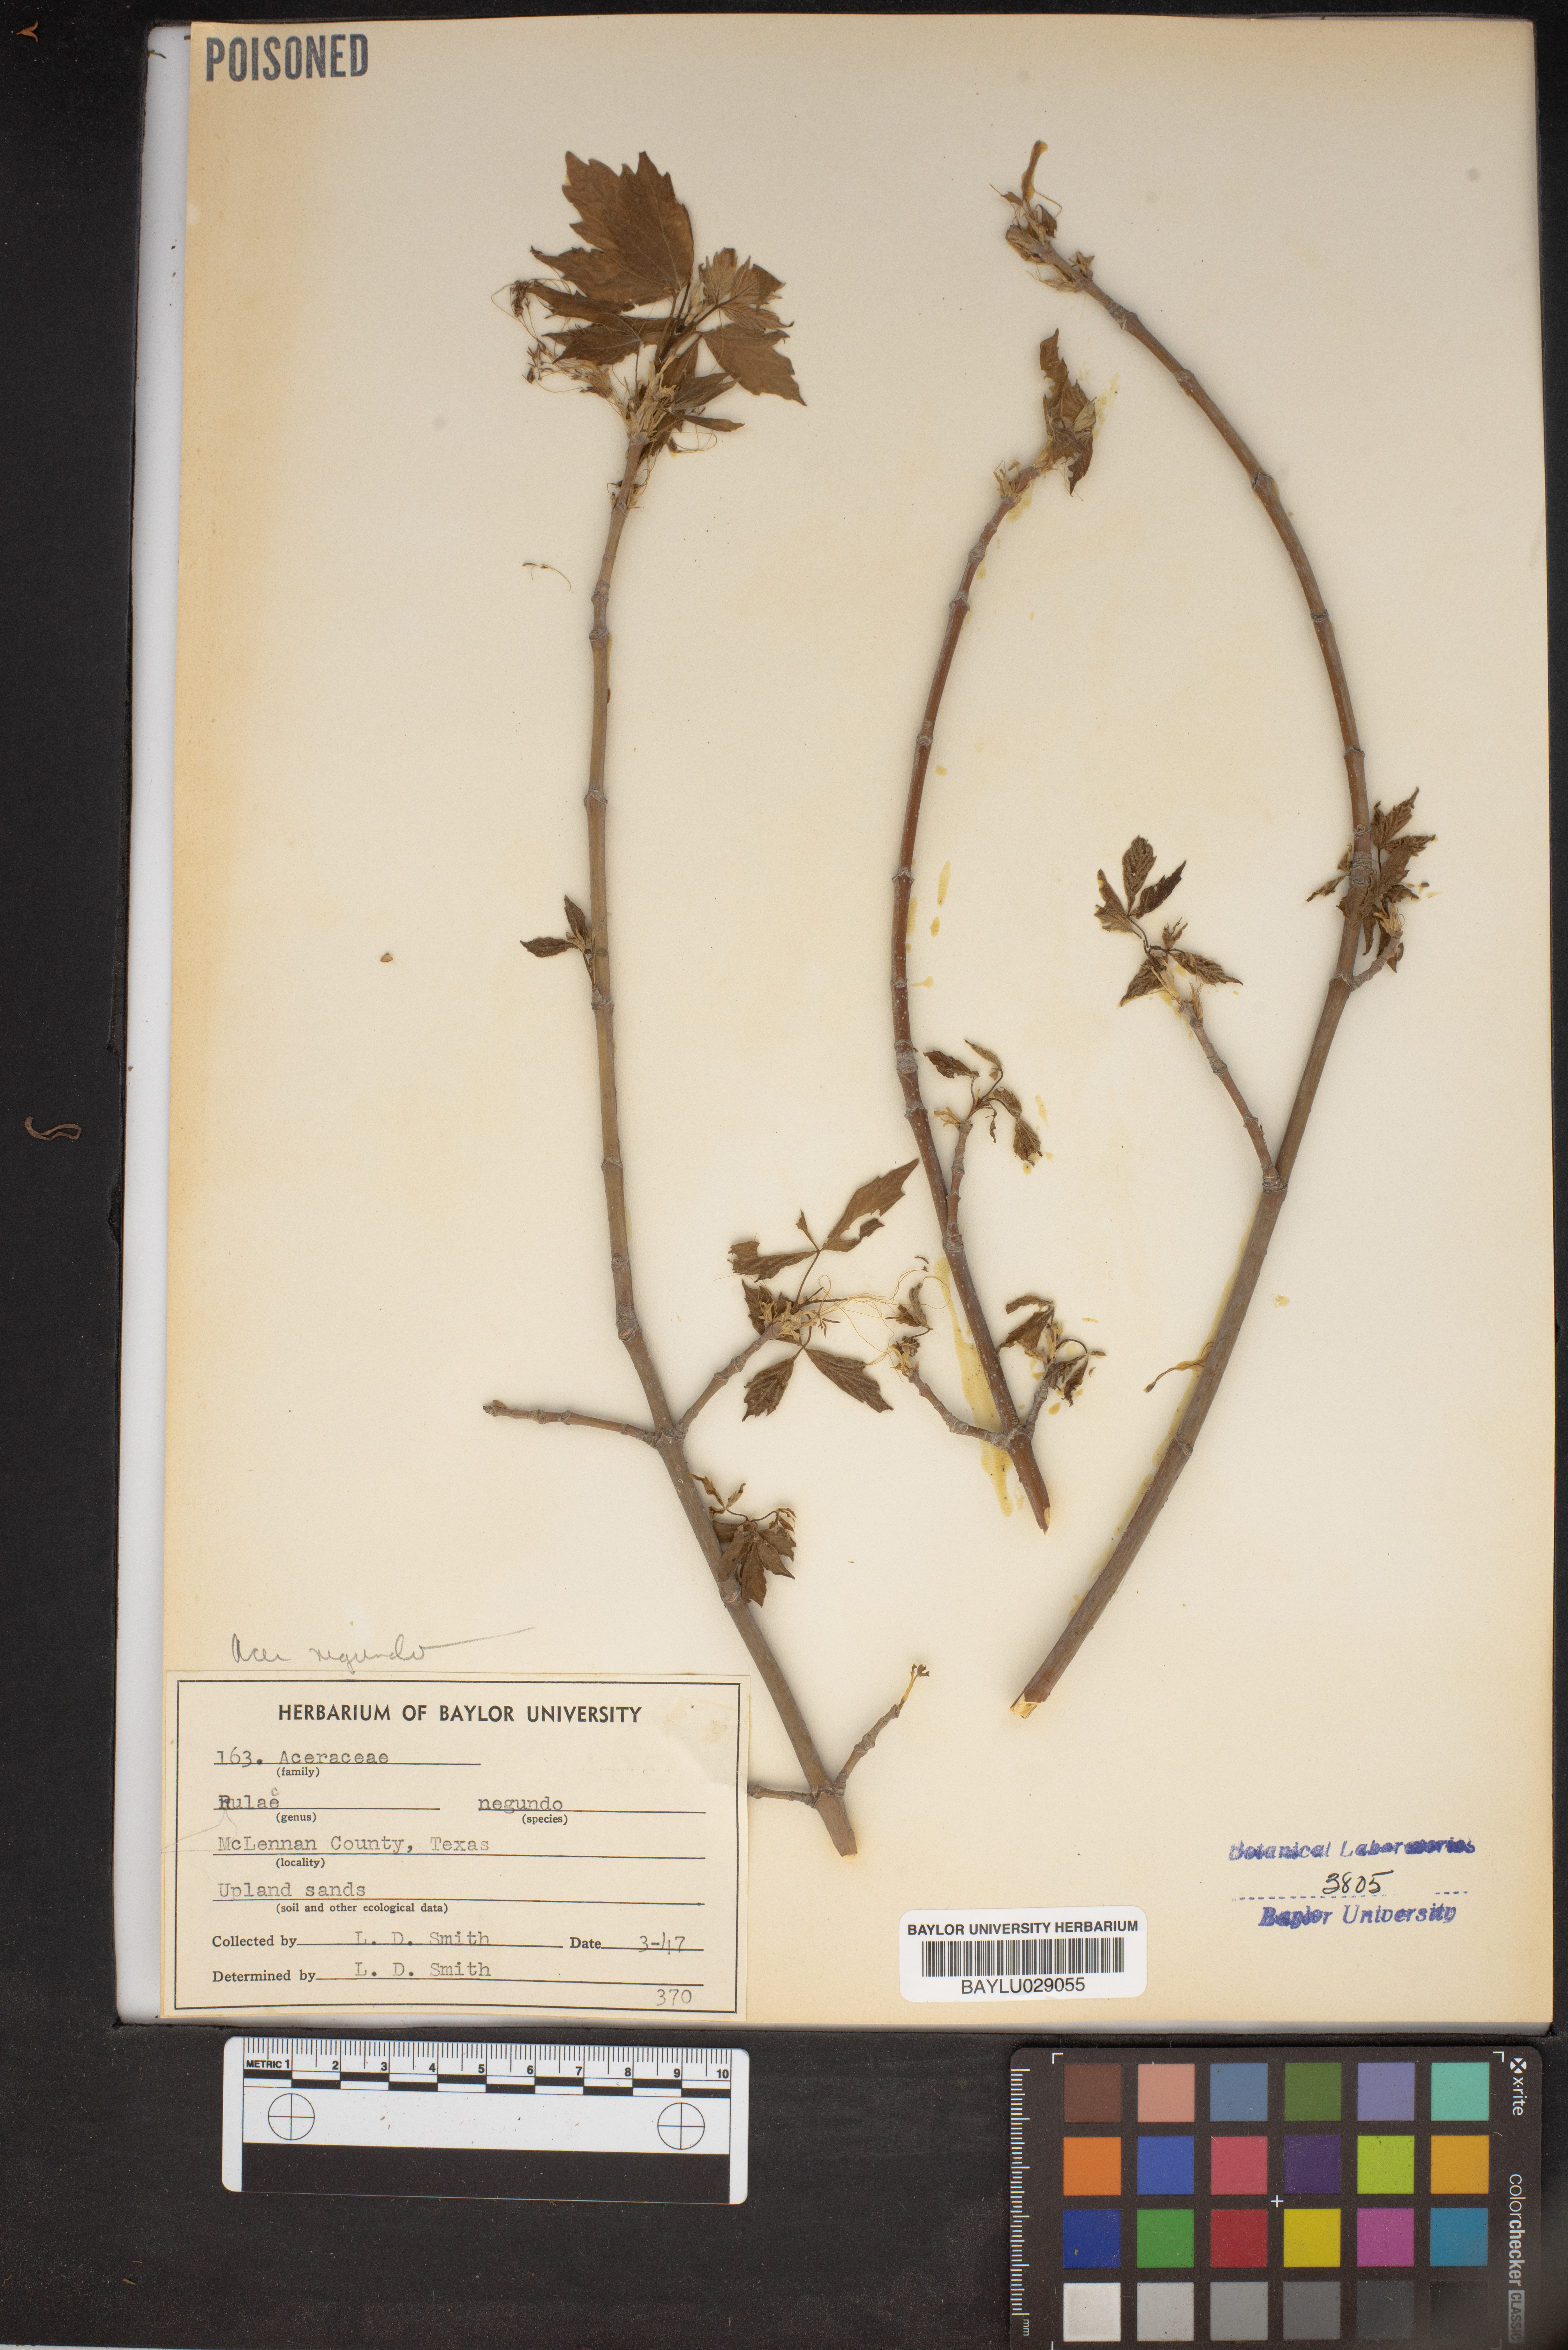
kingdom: Plantae
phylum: Tracheophyta
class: Magnoliopsida
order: Sapindales
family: Sapindaceae
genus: Acer
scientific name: Acer negundo
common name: Ashleaf maple
